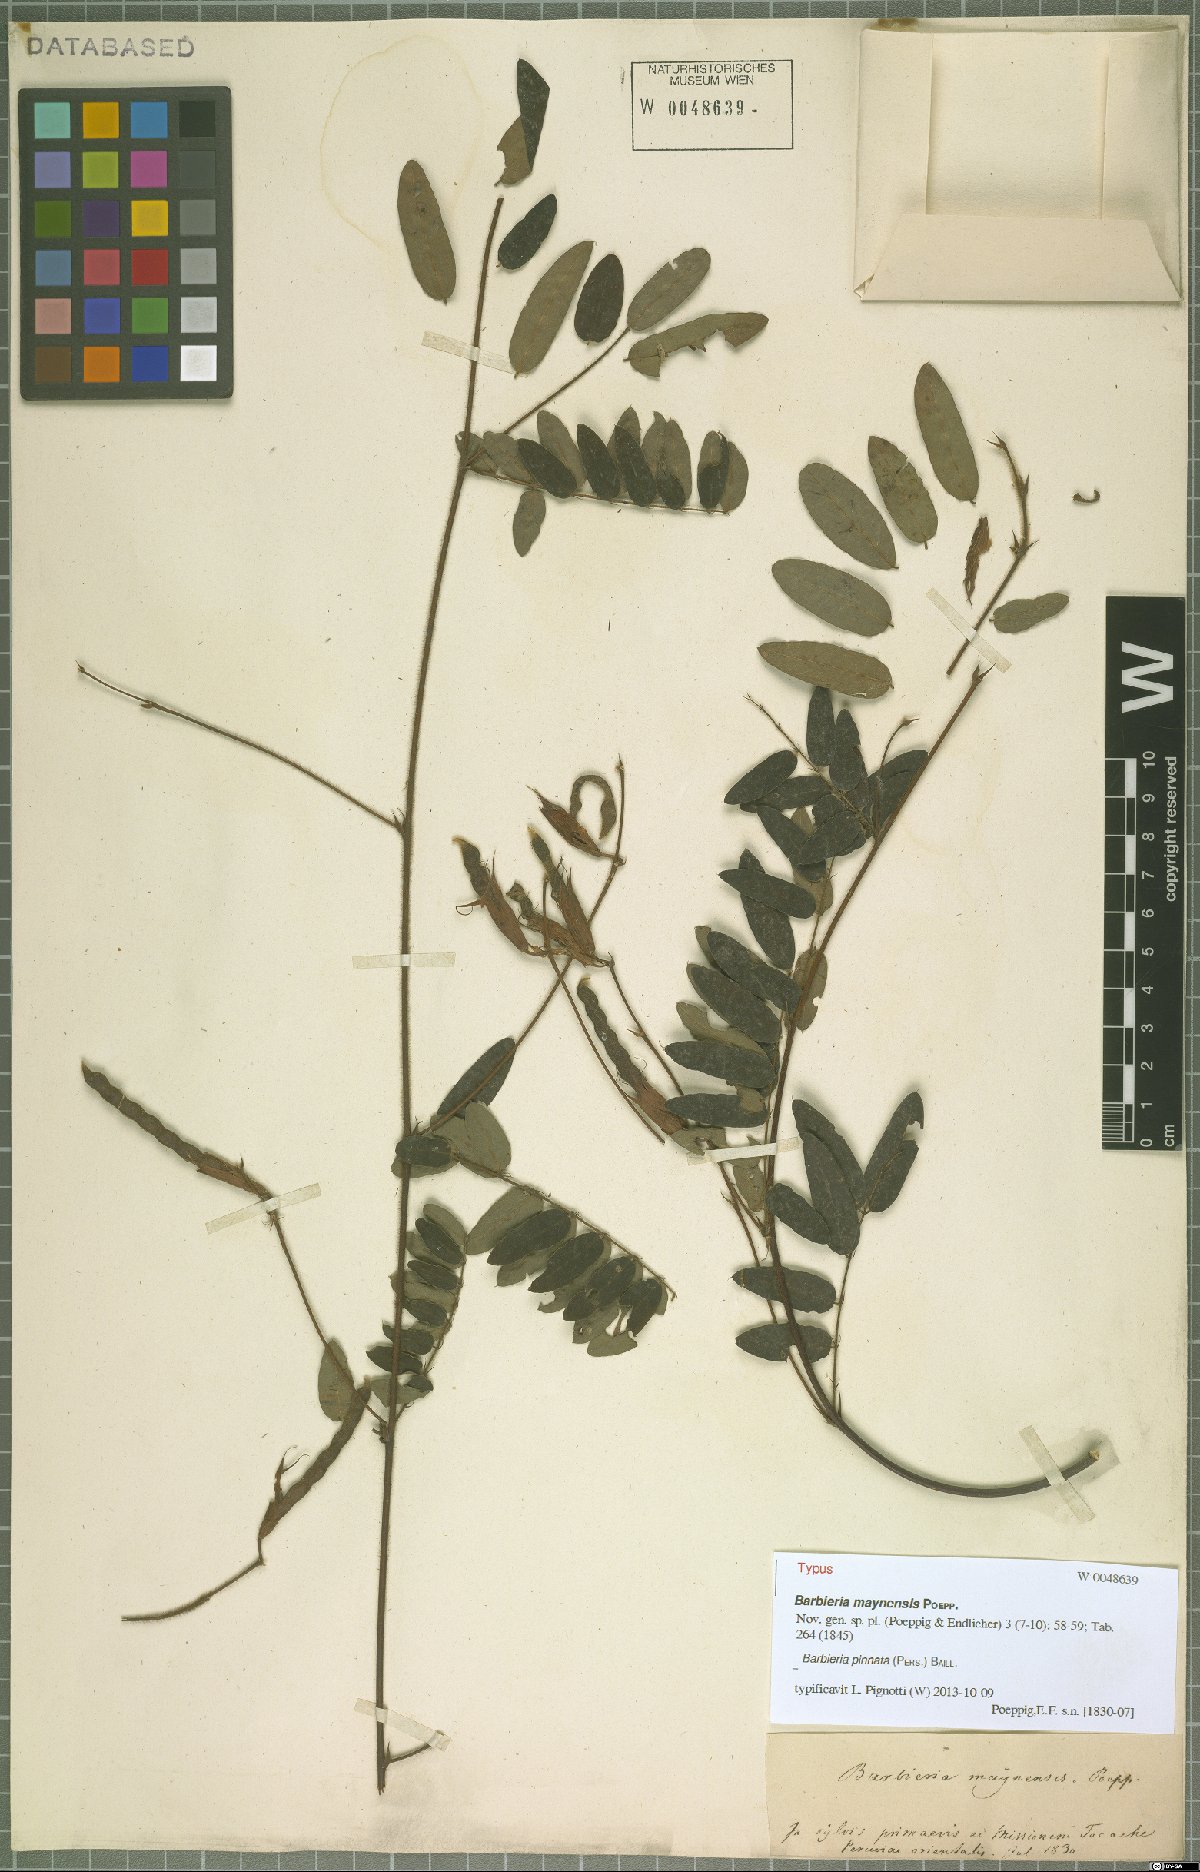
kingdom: Plantae
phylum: Tracheophyta
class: Magnoliopsida
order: Fabales
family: Fabaceae
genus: Barbieria
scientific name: Barbieria pinnata
